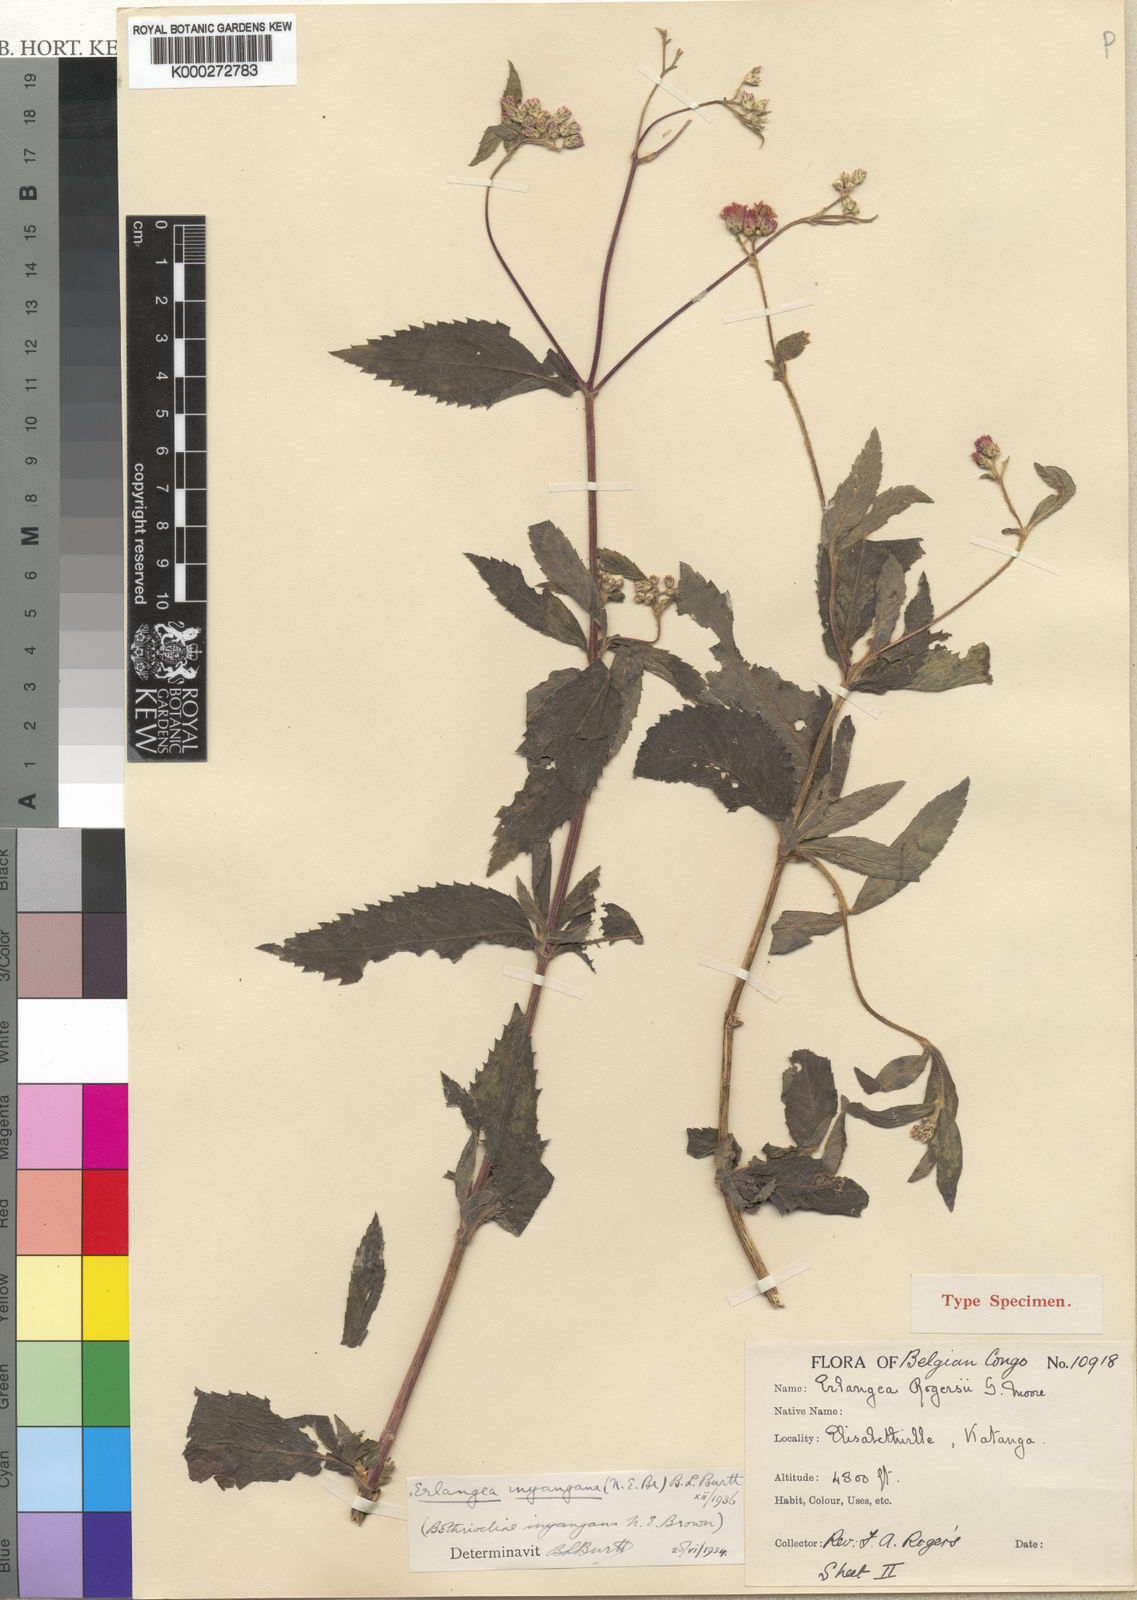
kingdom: Plantae
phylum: Tracheophyta
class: Magnoliopsida
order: Asterales
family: Asteraceae
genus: Bothriocline
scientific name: Bothriocline inyangana
